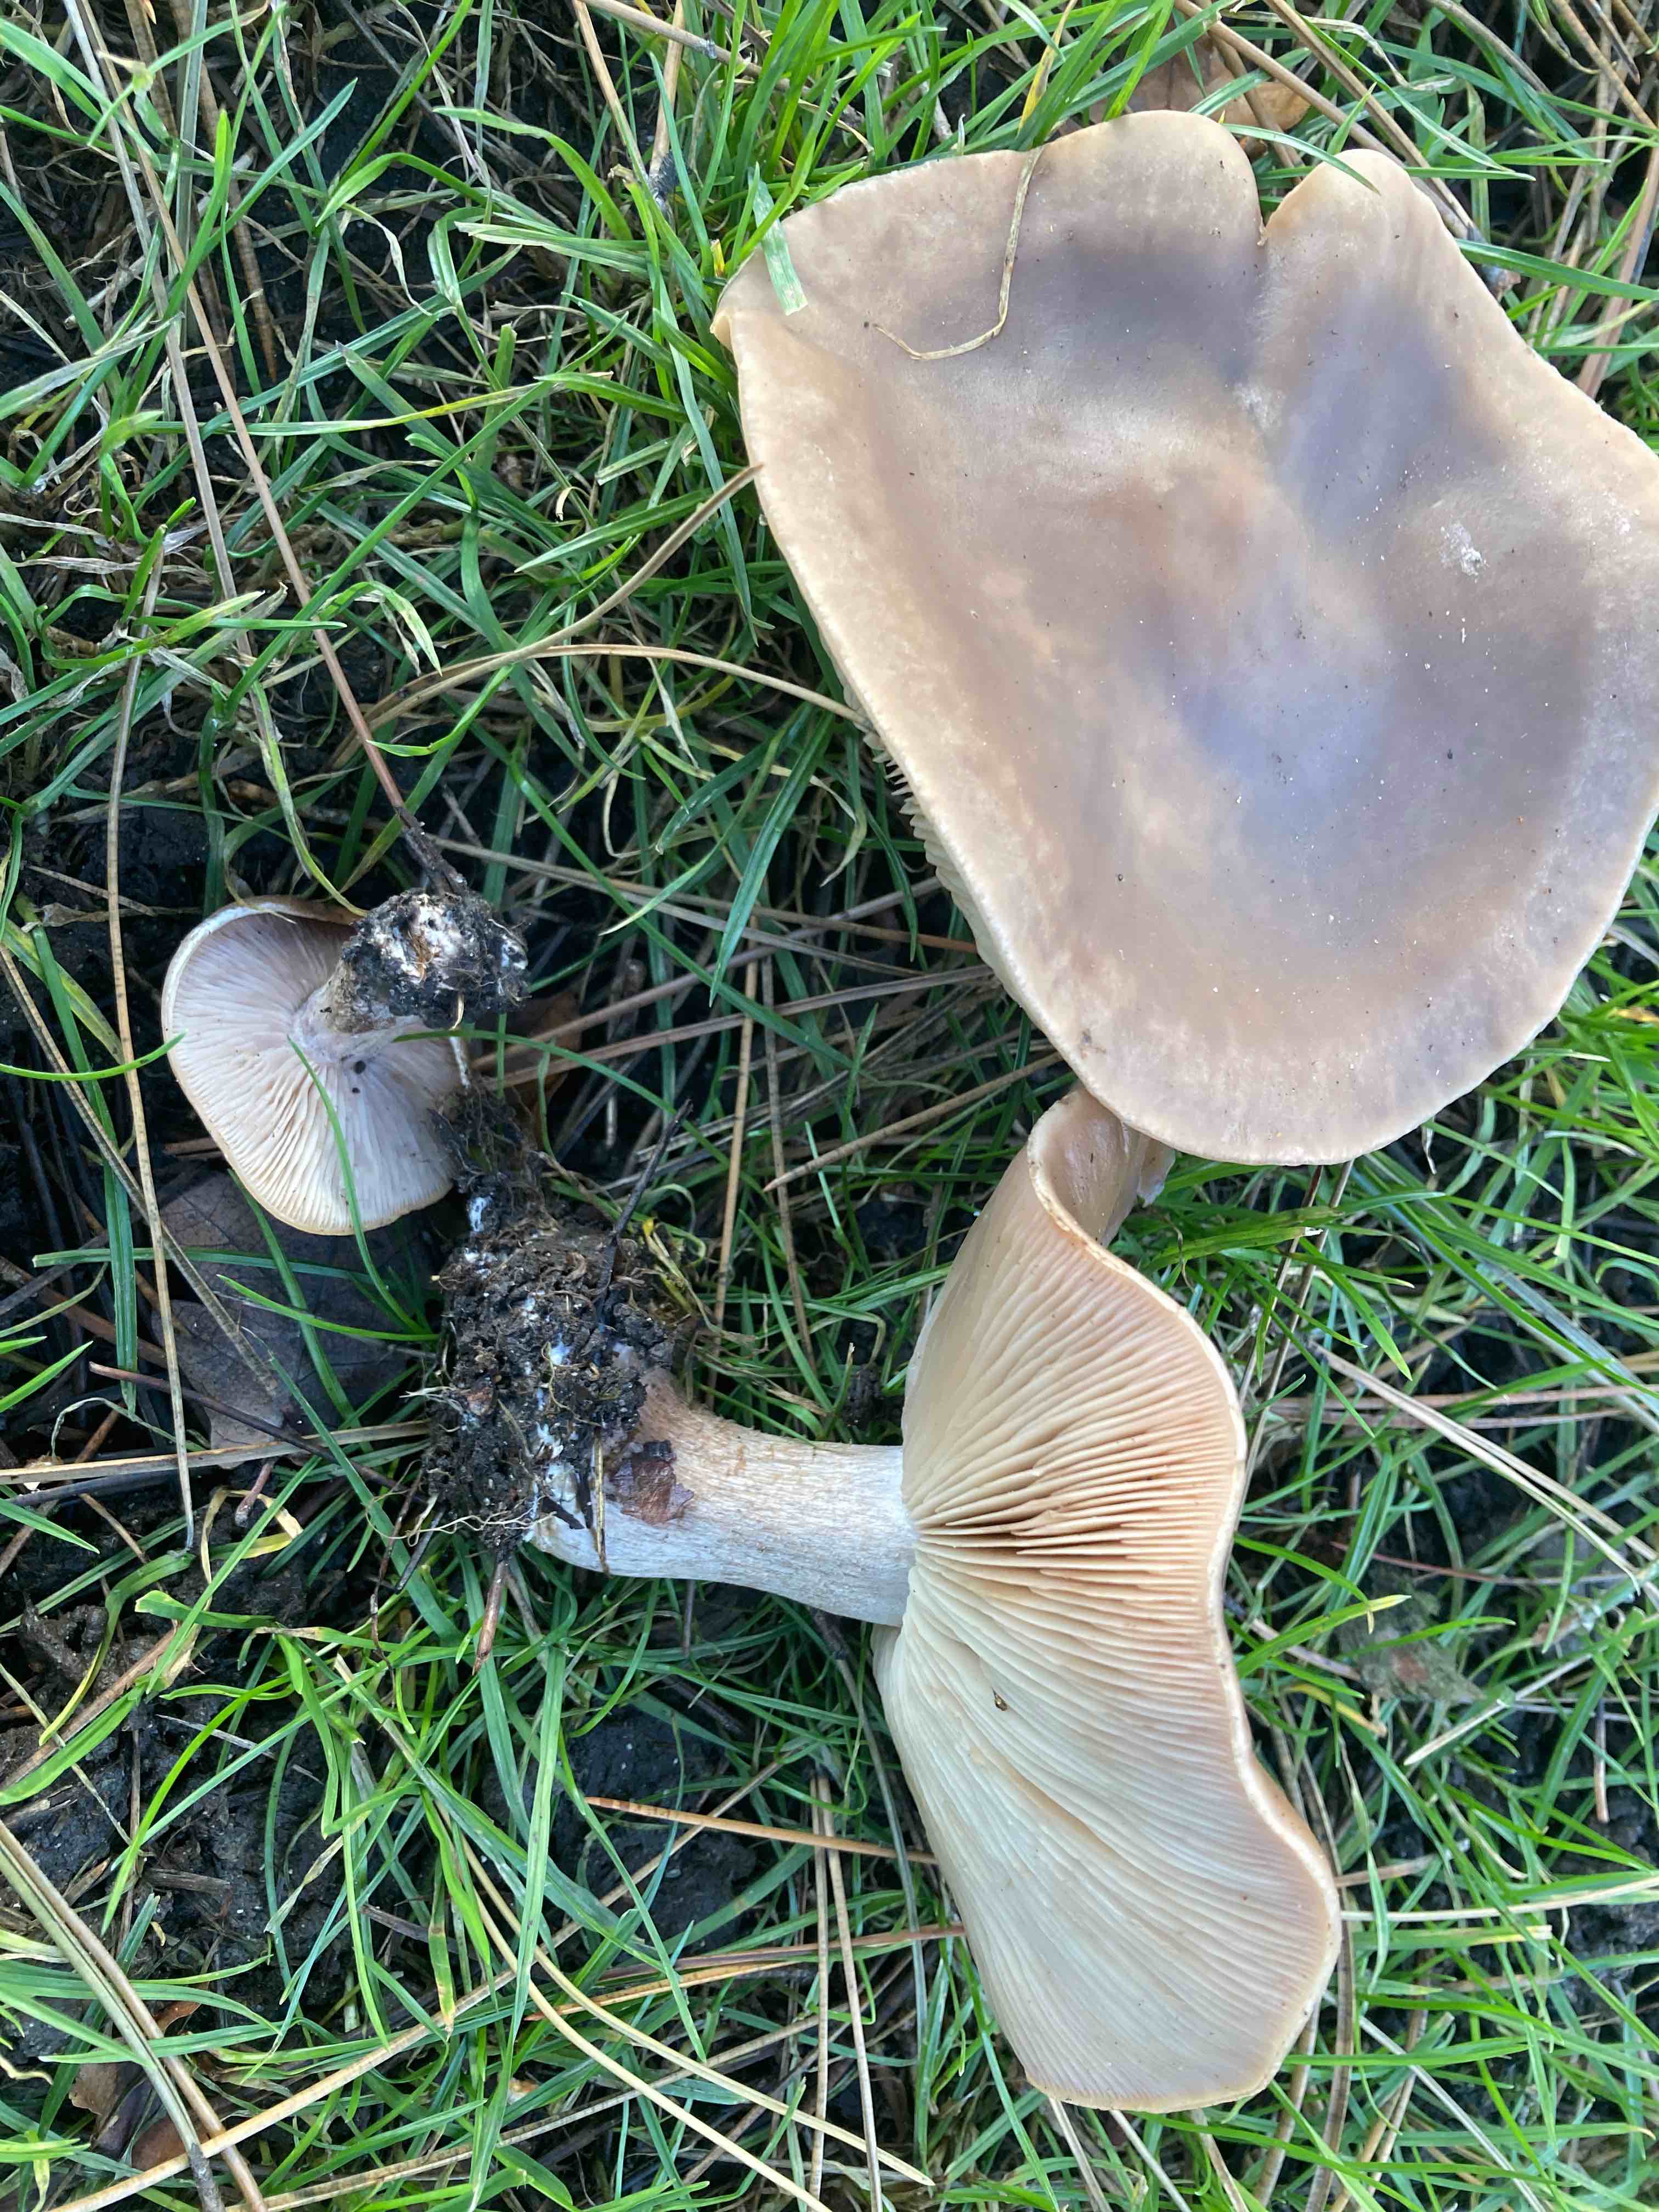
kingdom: Fungi
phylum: Basidiomycota
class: Agaricomycetes
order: Agaricales
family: Tricholomataceae
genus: Lepista
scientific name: Lepista personata
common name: bleg hekseringshat
